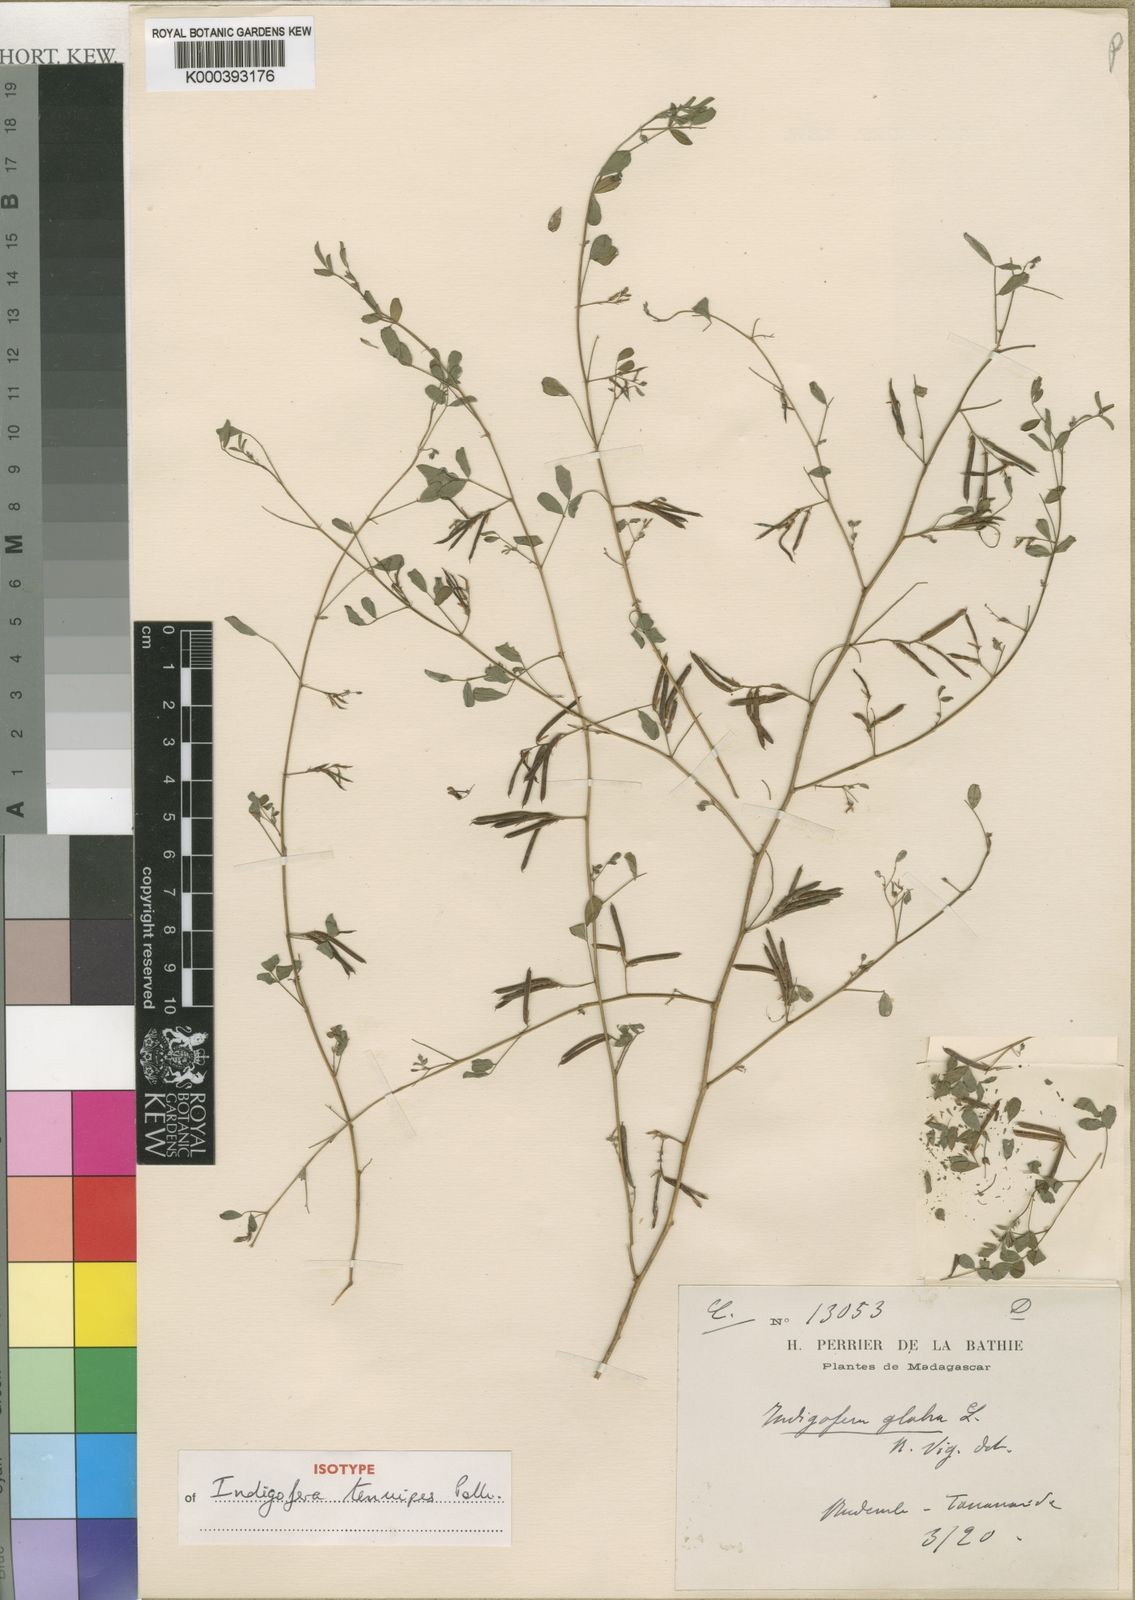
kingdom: Plantae
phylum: Tracheophyta
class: Magnoliopsida
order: Fabales
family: Fabaceae
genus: Indigofera
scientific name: Indigofera tenuipes
